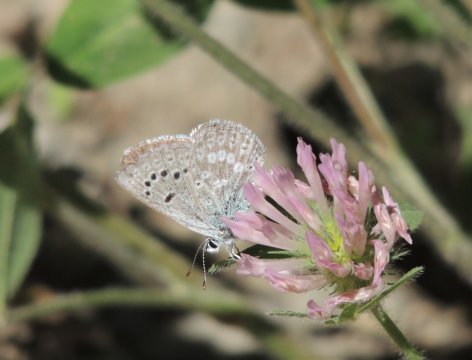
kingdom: Animalia
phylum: Arthropoda
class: Insecta
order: Lepidoptera
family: Lycaenidae
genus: Icaricia
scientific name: Icaricia icarioides
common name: Boisduval's Blue
